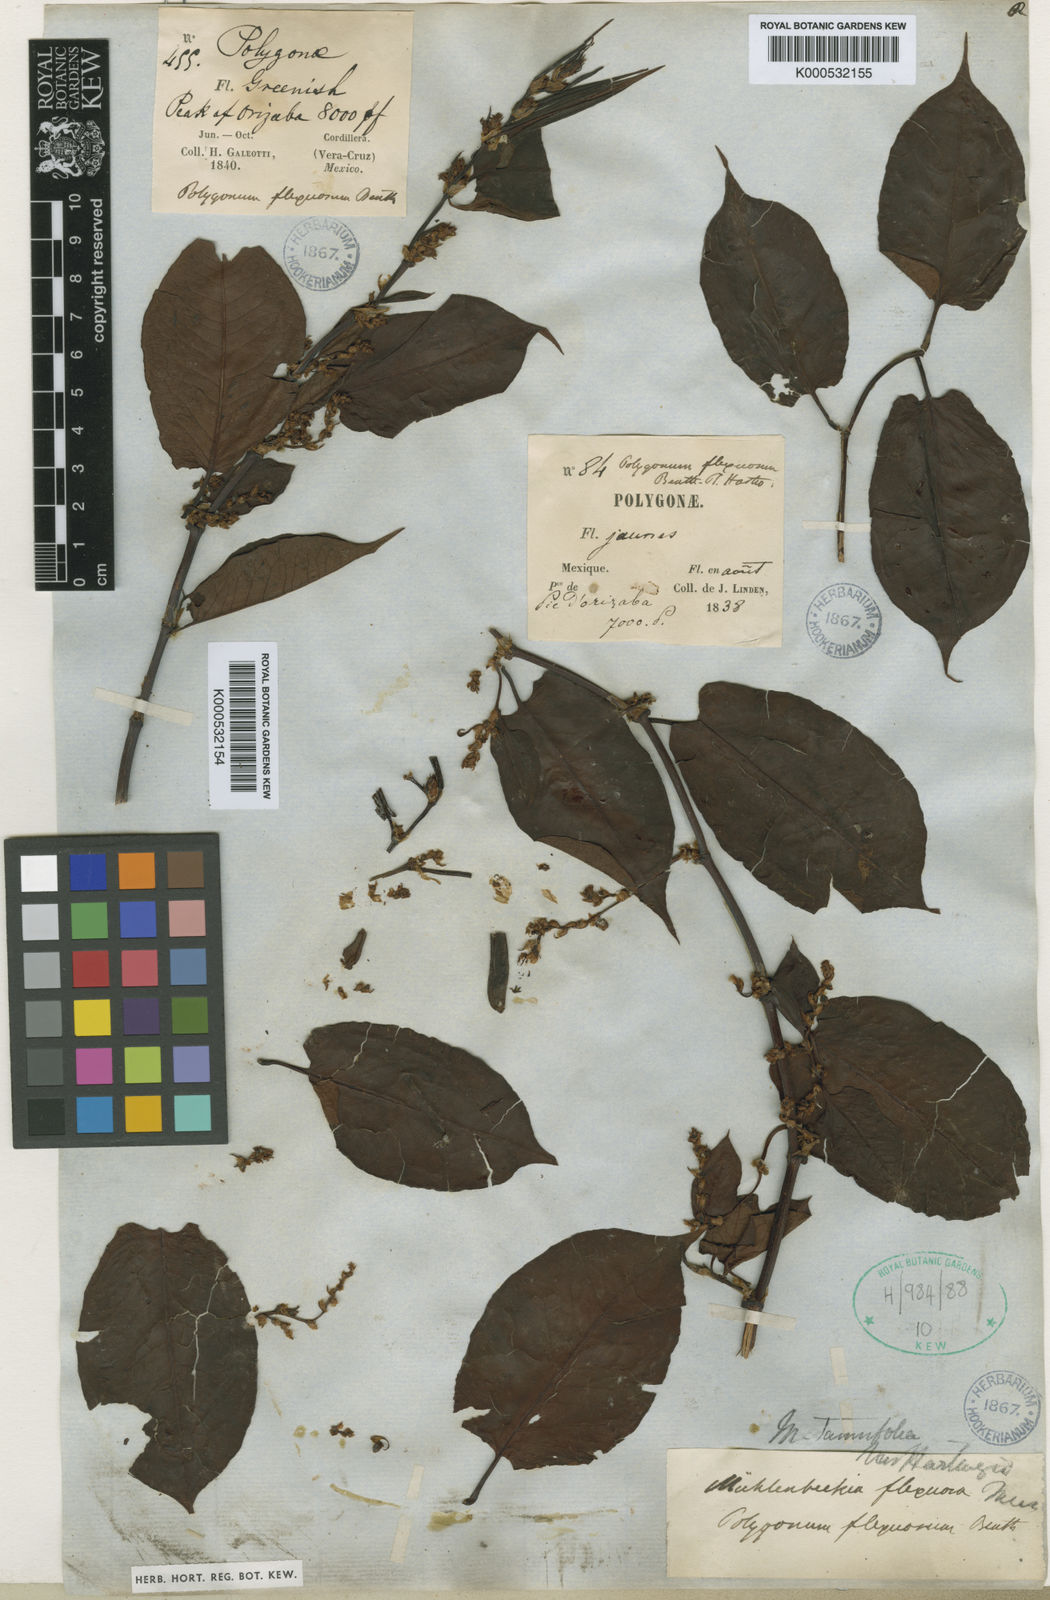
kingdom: Plantae
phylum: Tracheophyta
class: Magnoliopsida
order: Caryophyllales
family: Polygonaceae
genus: Muehlenbeckia
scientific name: Muehlenbeckia tamnifolia
